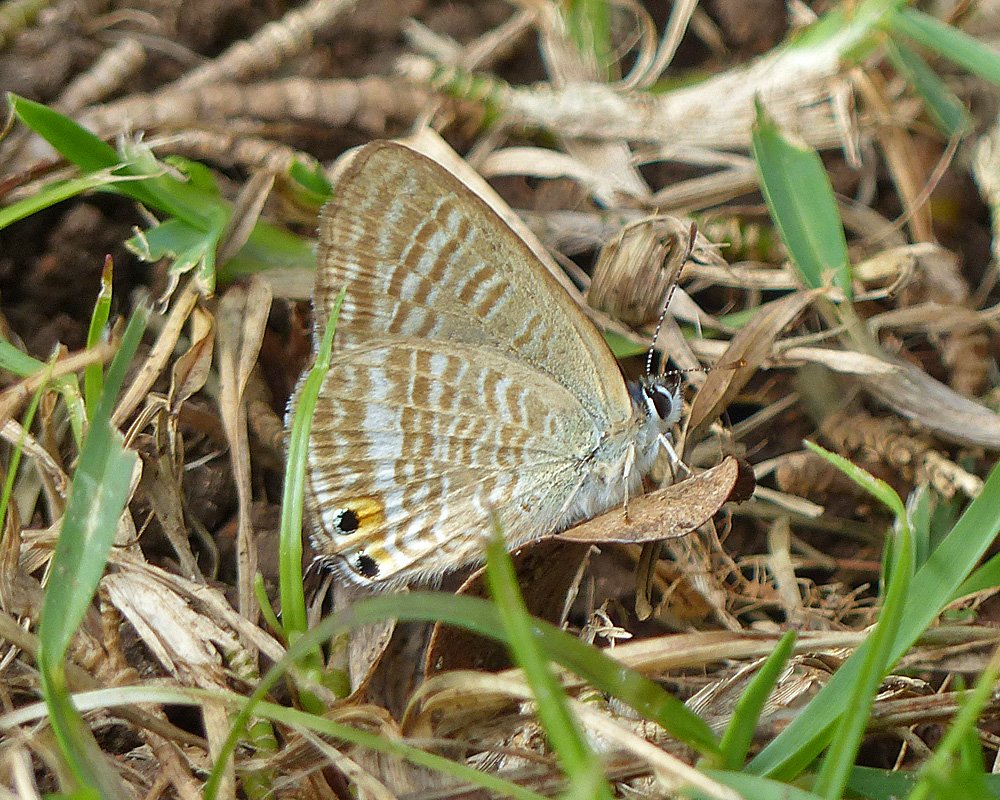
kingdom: Animalia
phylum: Arthropoda
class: Insecta
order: Lepidoptera
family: Lycaenidae
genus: Lampides
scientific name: Lampides boeticus
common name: Pea Blue
